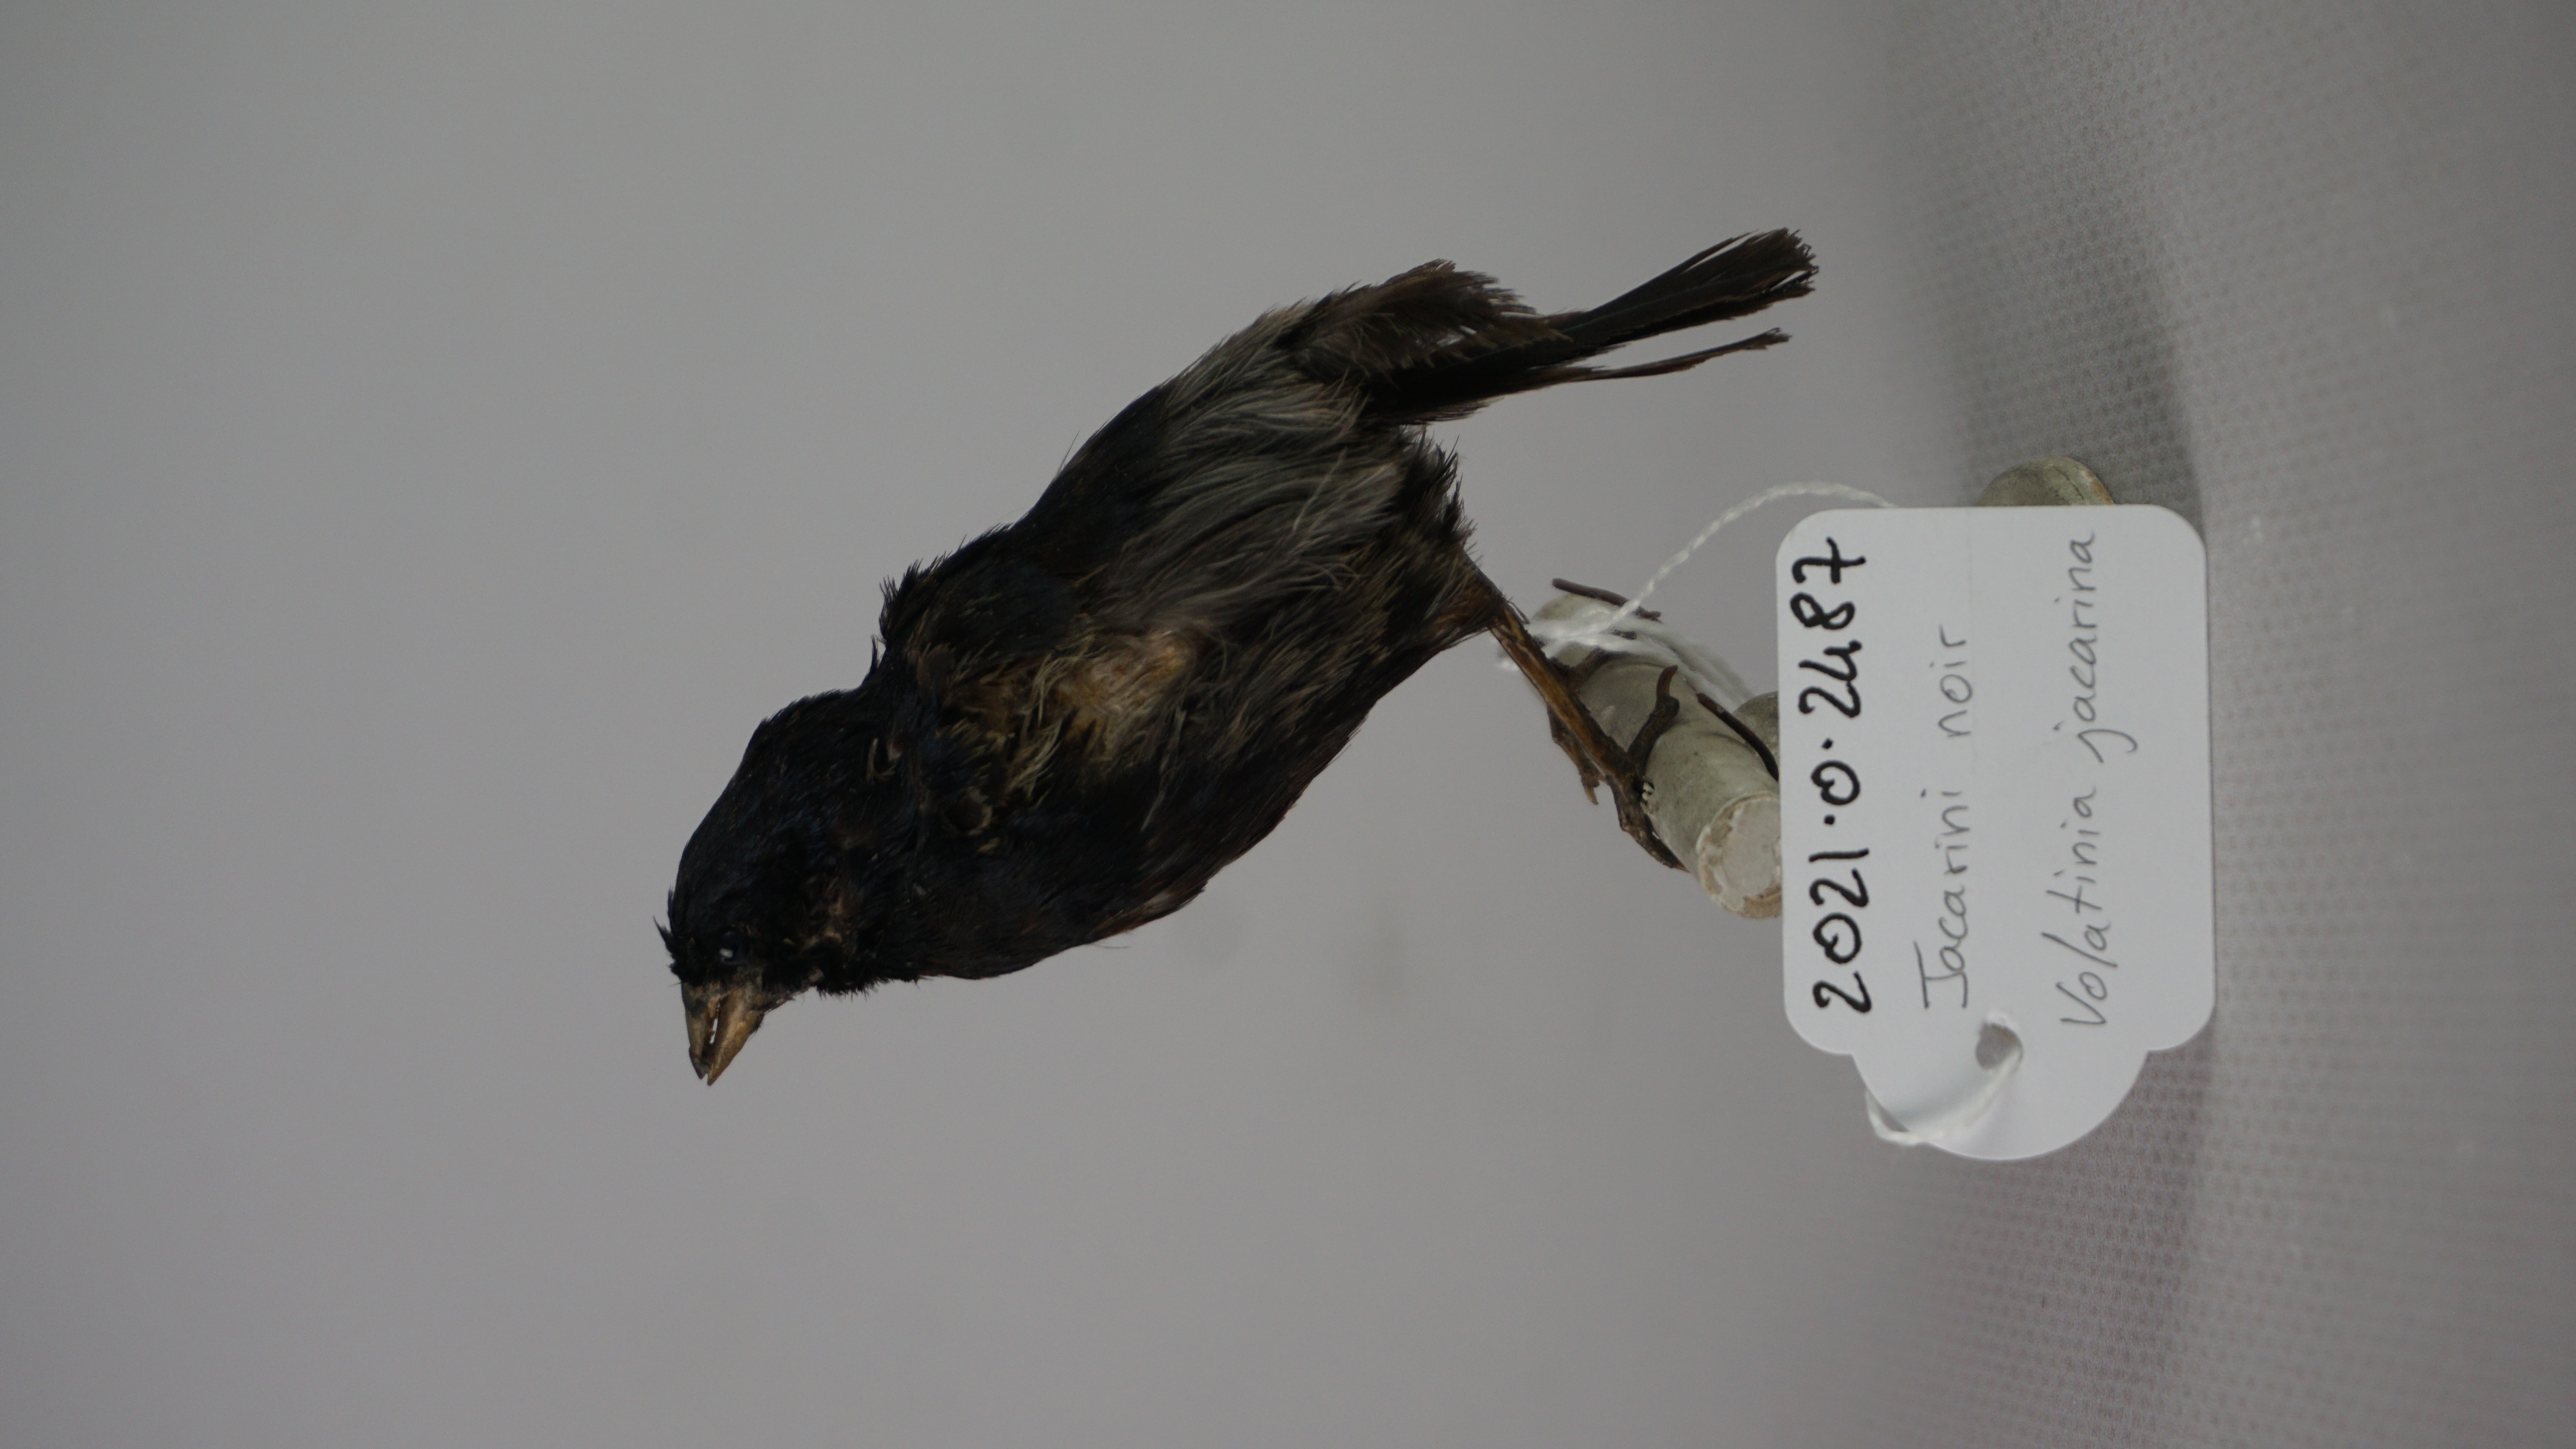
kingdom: Animalia
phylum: Chordata
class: Aves
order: Passeriformes
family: Thraupidae
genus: Volatinia
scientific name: Volatinia jacarina
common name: Blue-black grassquit
